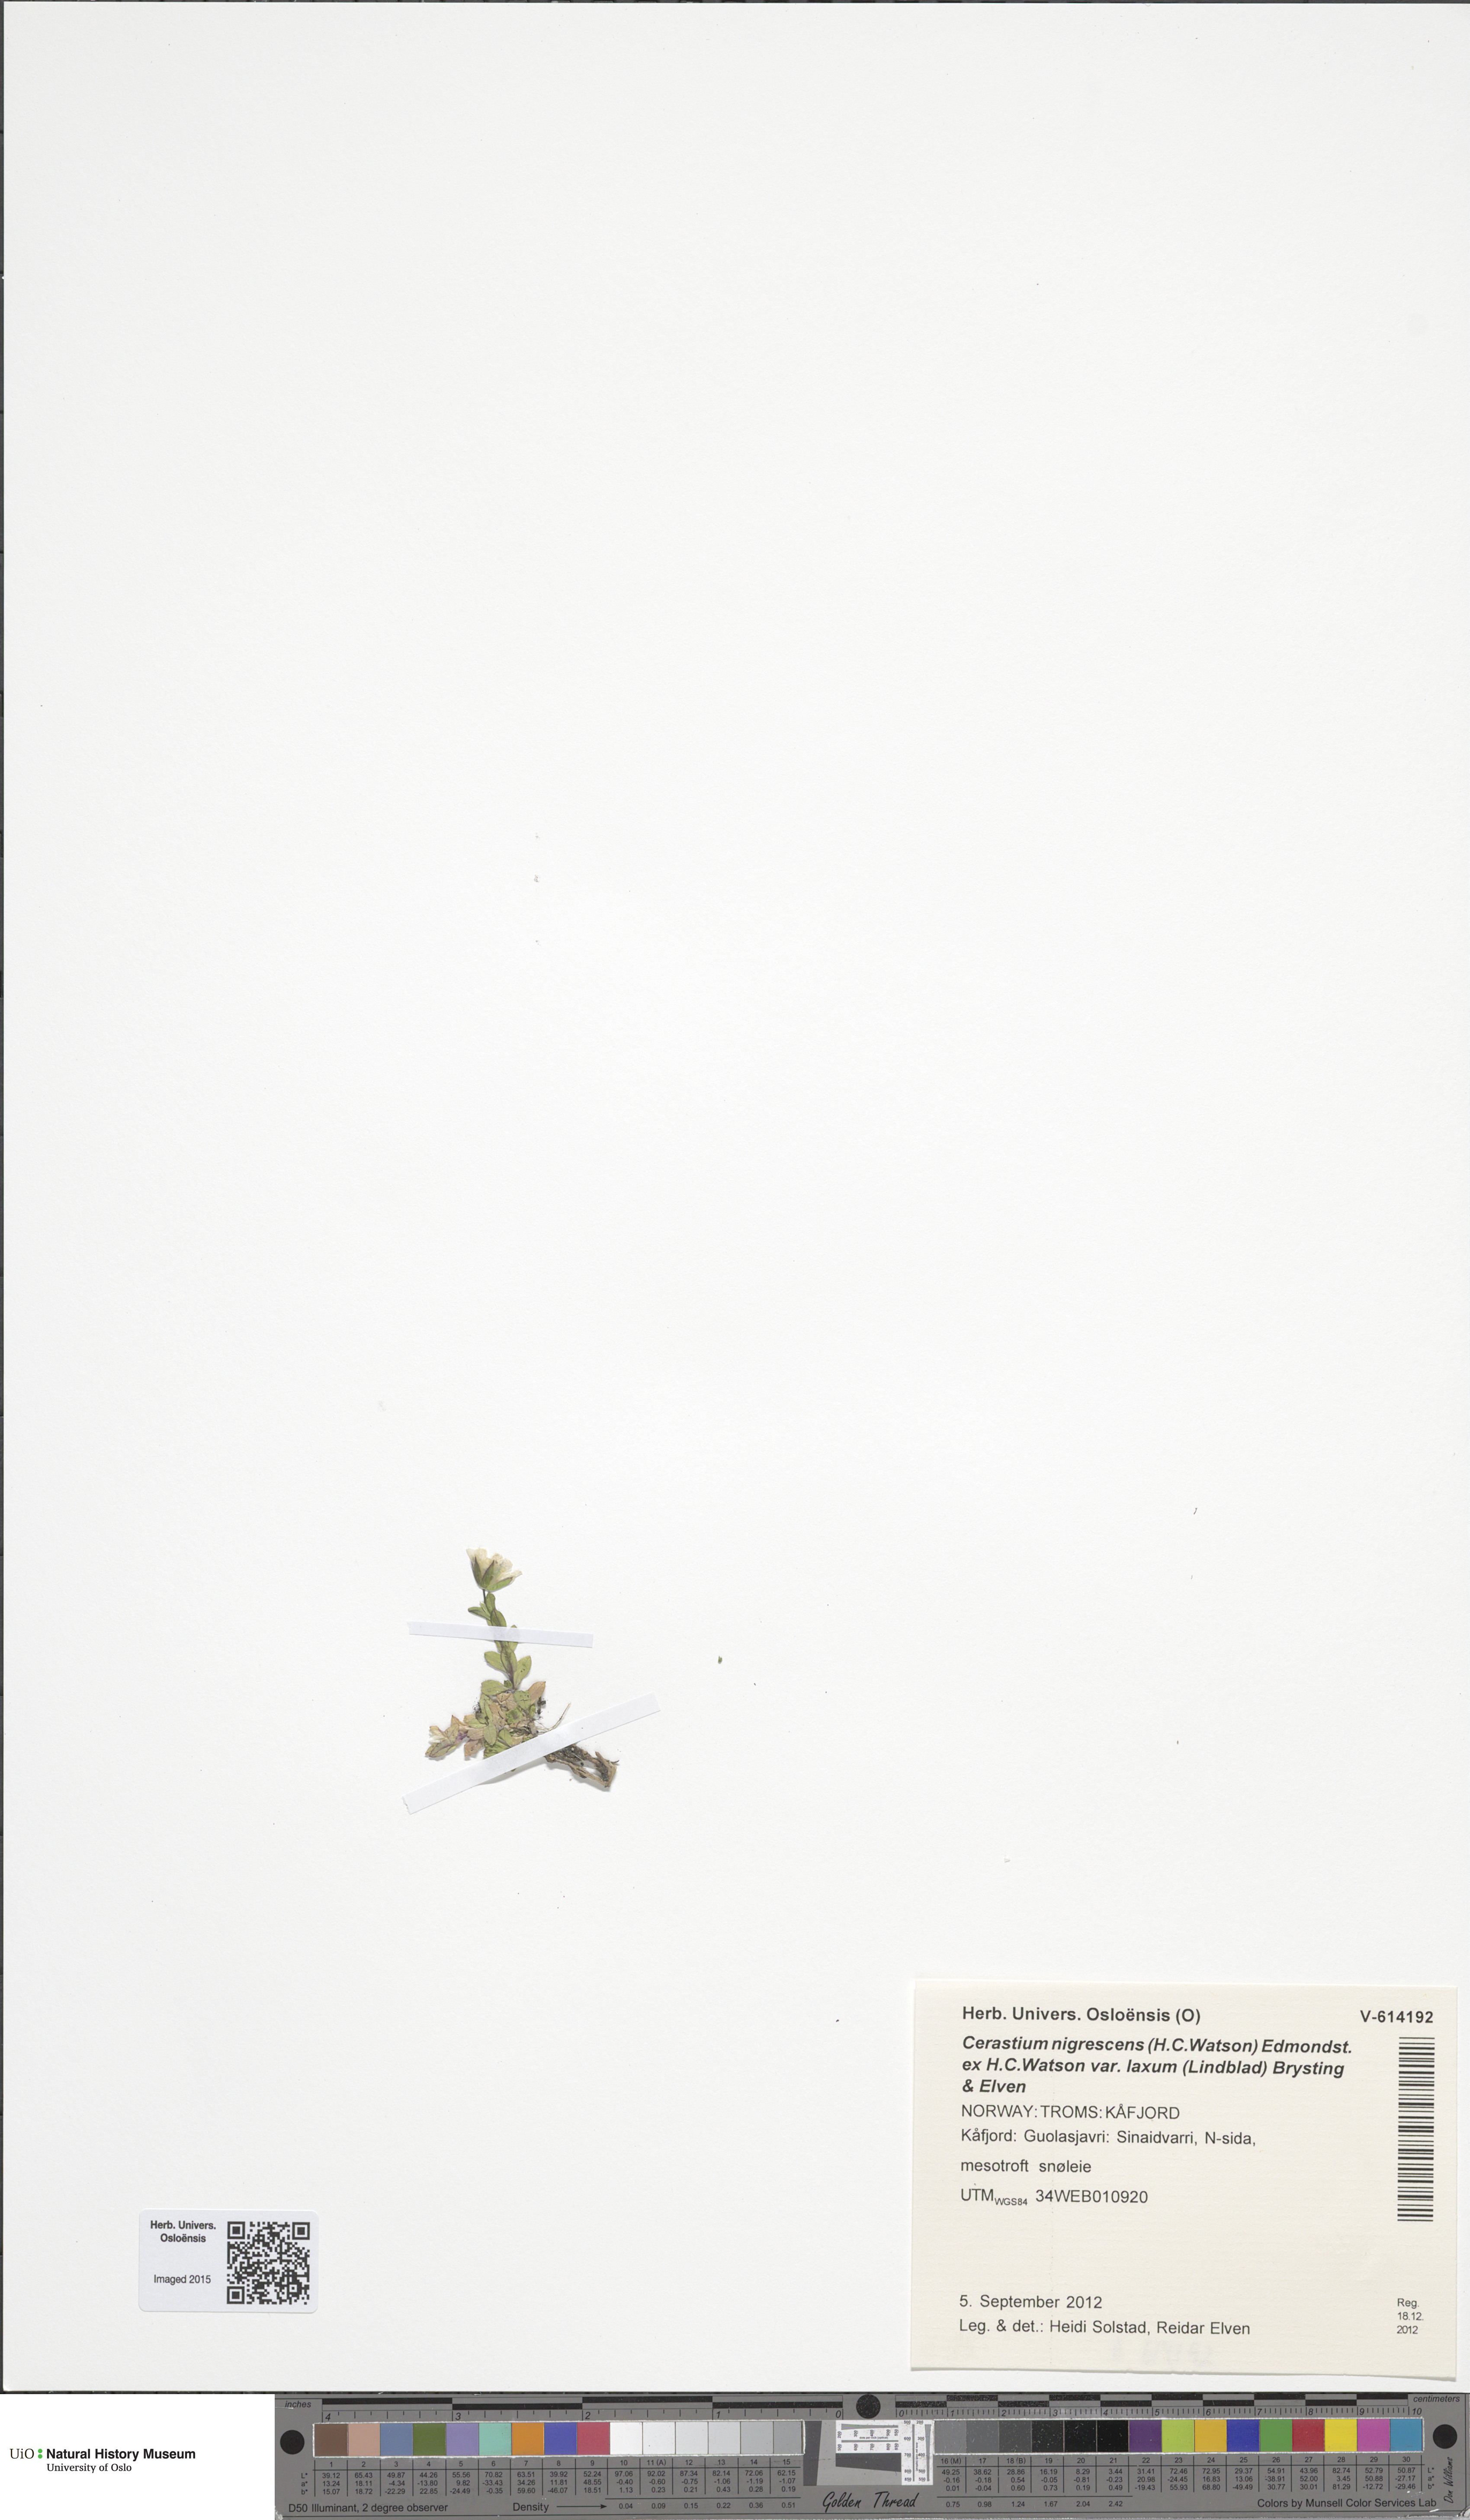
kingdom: Plantae
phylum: Tracheophyta
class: Magnoliopsida
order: Caryophyllales
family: Caryophyllaceae
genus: Cerastium
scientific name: Cerastium nigrescens
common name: Shetland mouse-ear
